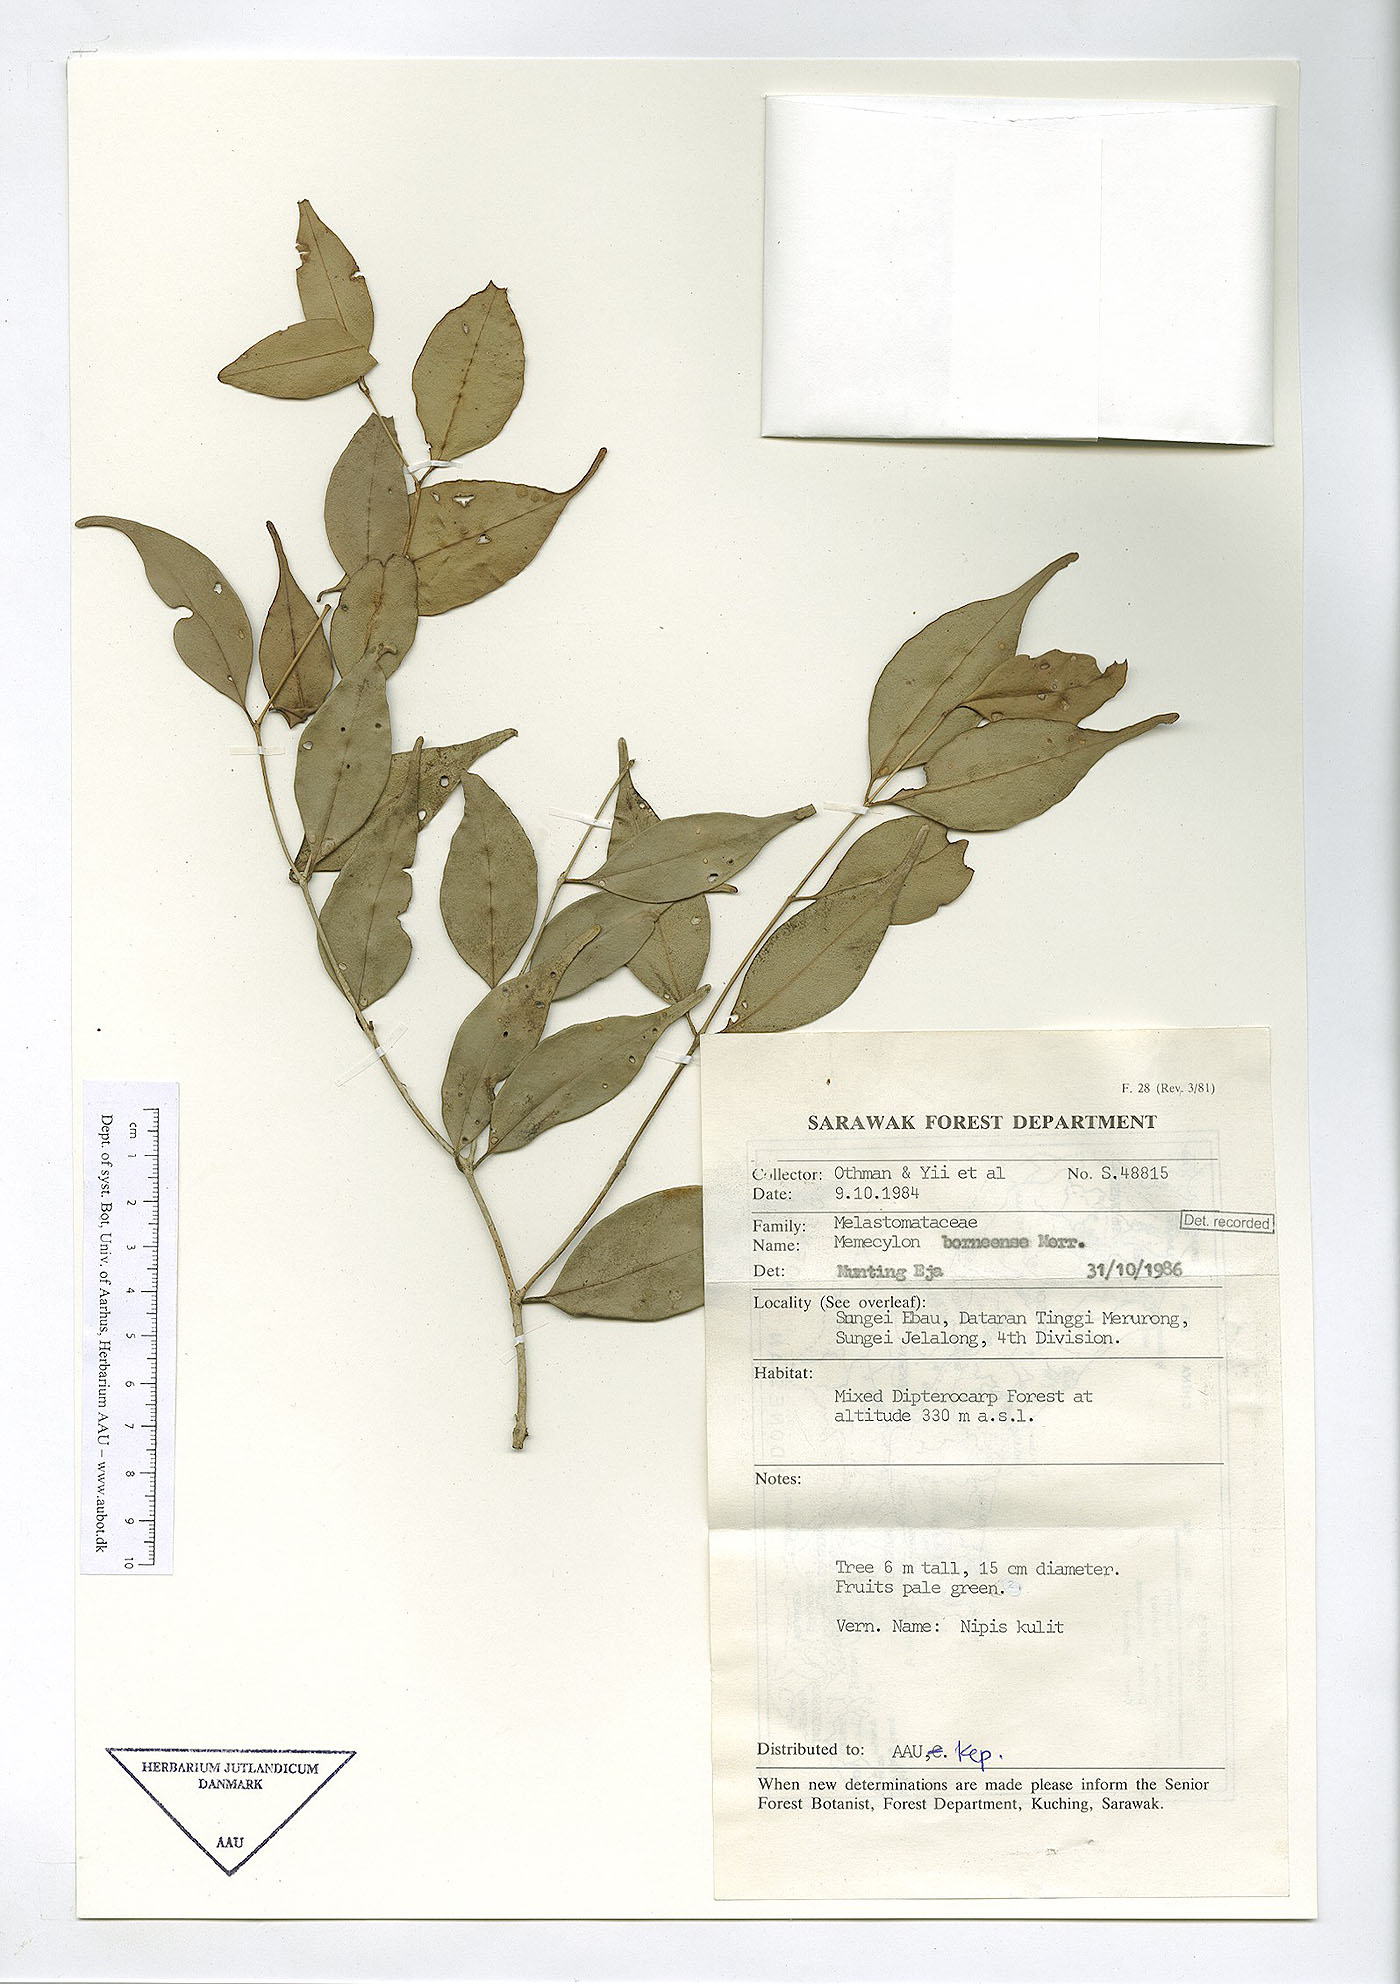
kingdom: Plantae
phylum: Tracheophyta
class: Magnoliopsida
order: Myrtales
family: Melastomataceae
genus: Memecylon
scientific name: Memecylon borneense
